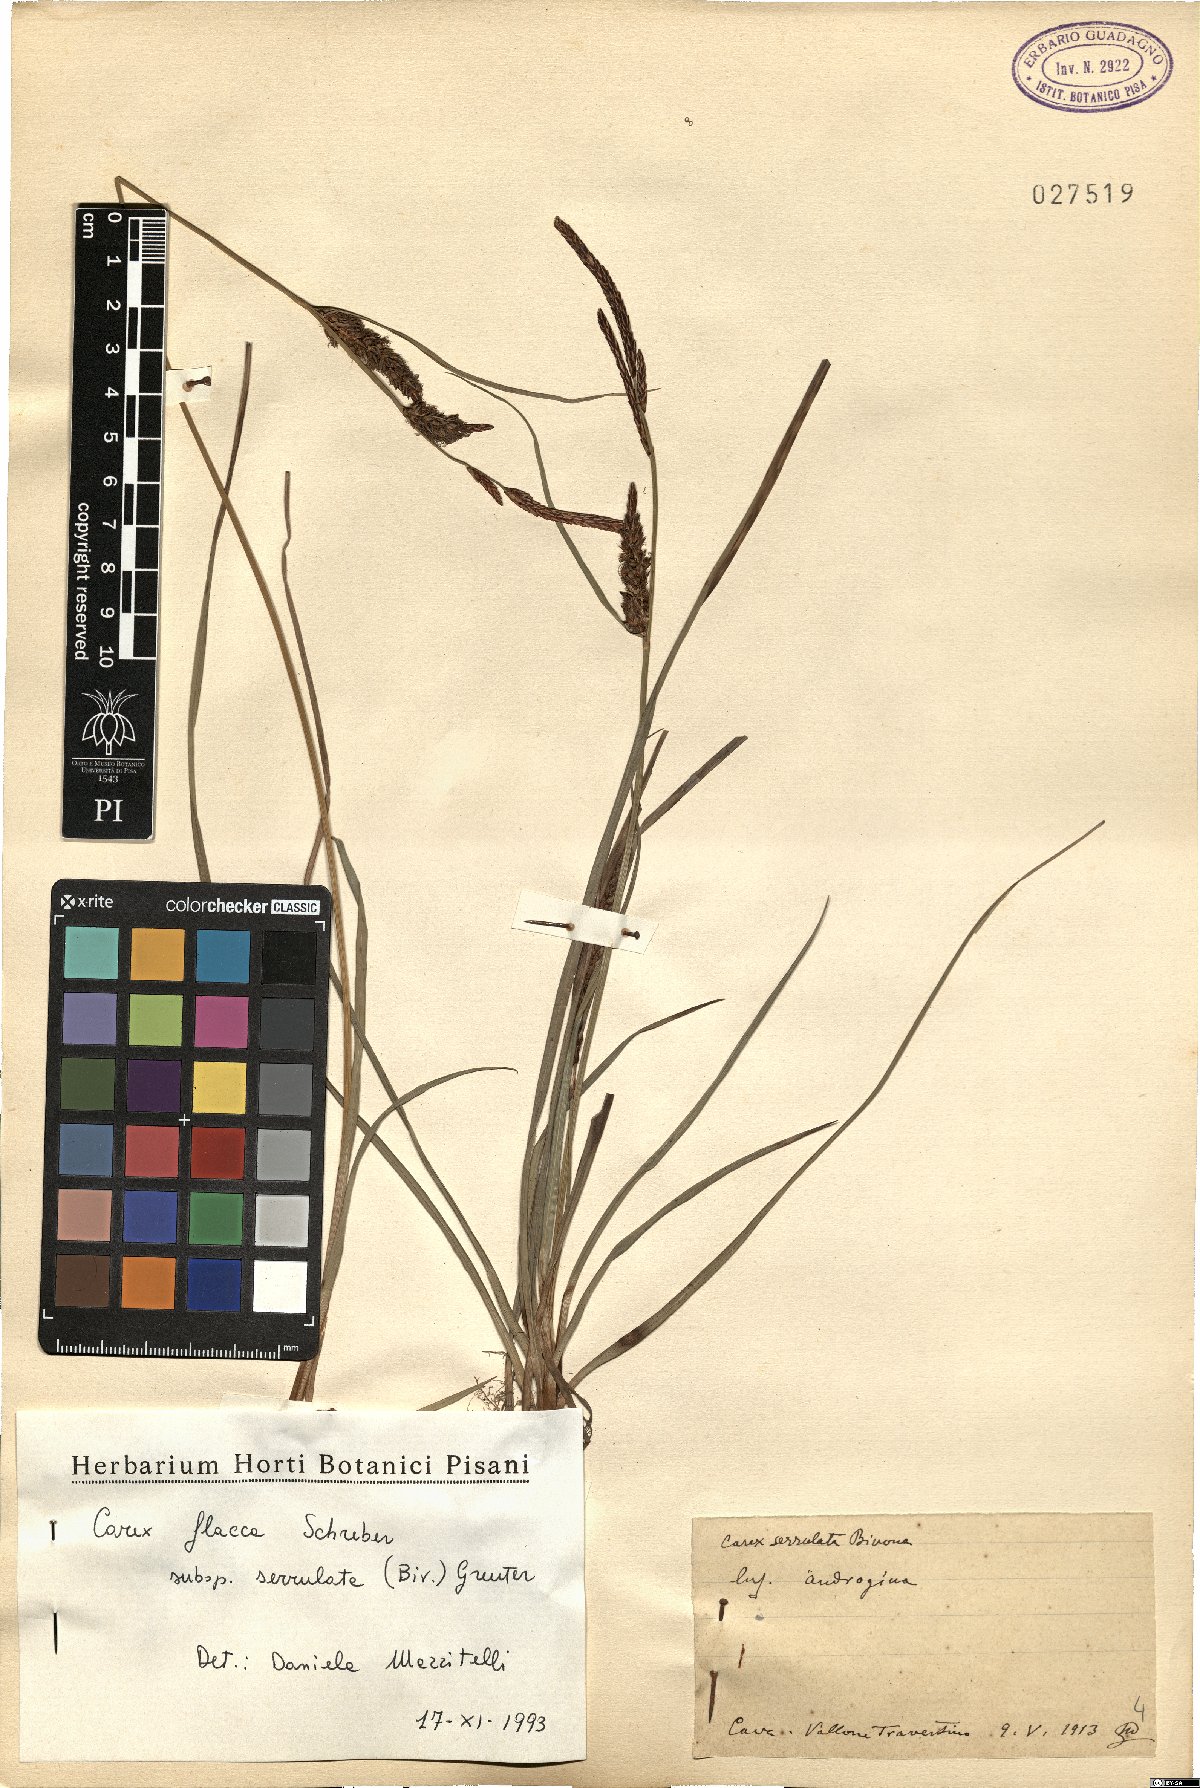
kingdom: Plantae
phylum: Tracheophyta
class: Liliopsida
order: Poales
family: Cyperaceae
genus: Carex
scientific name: Carex flacca
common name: Glaucous sedge
